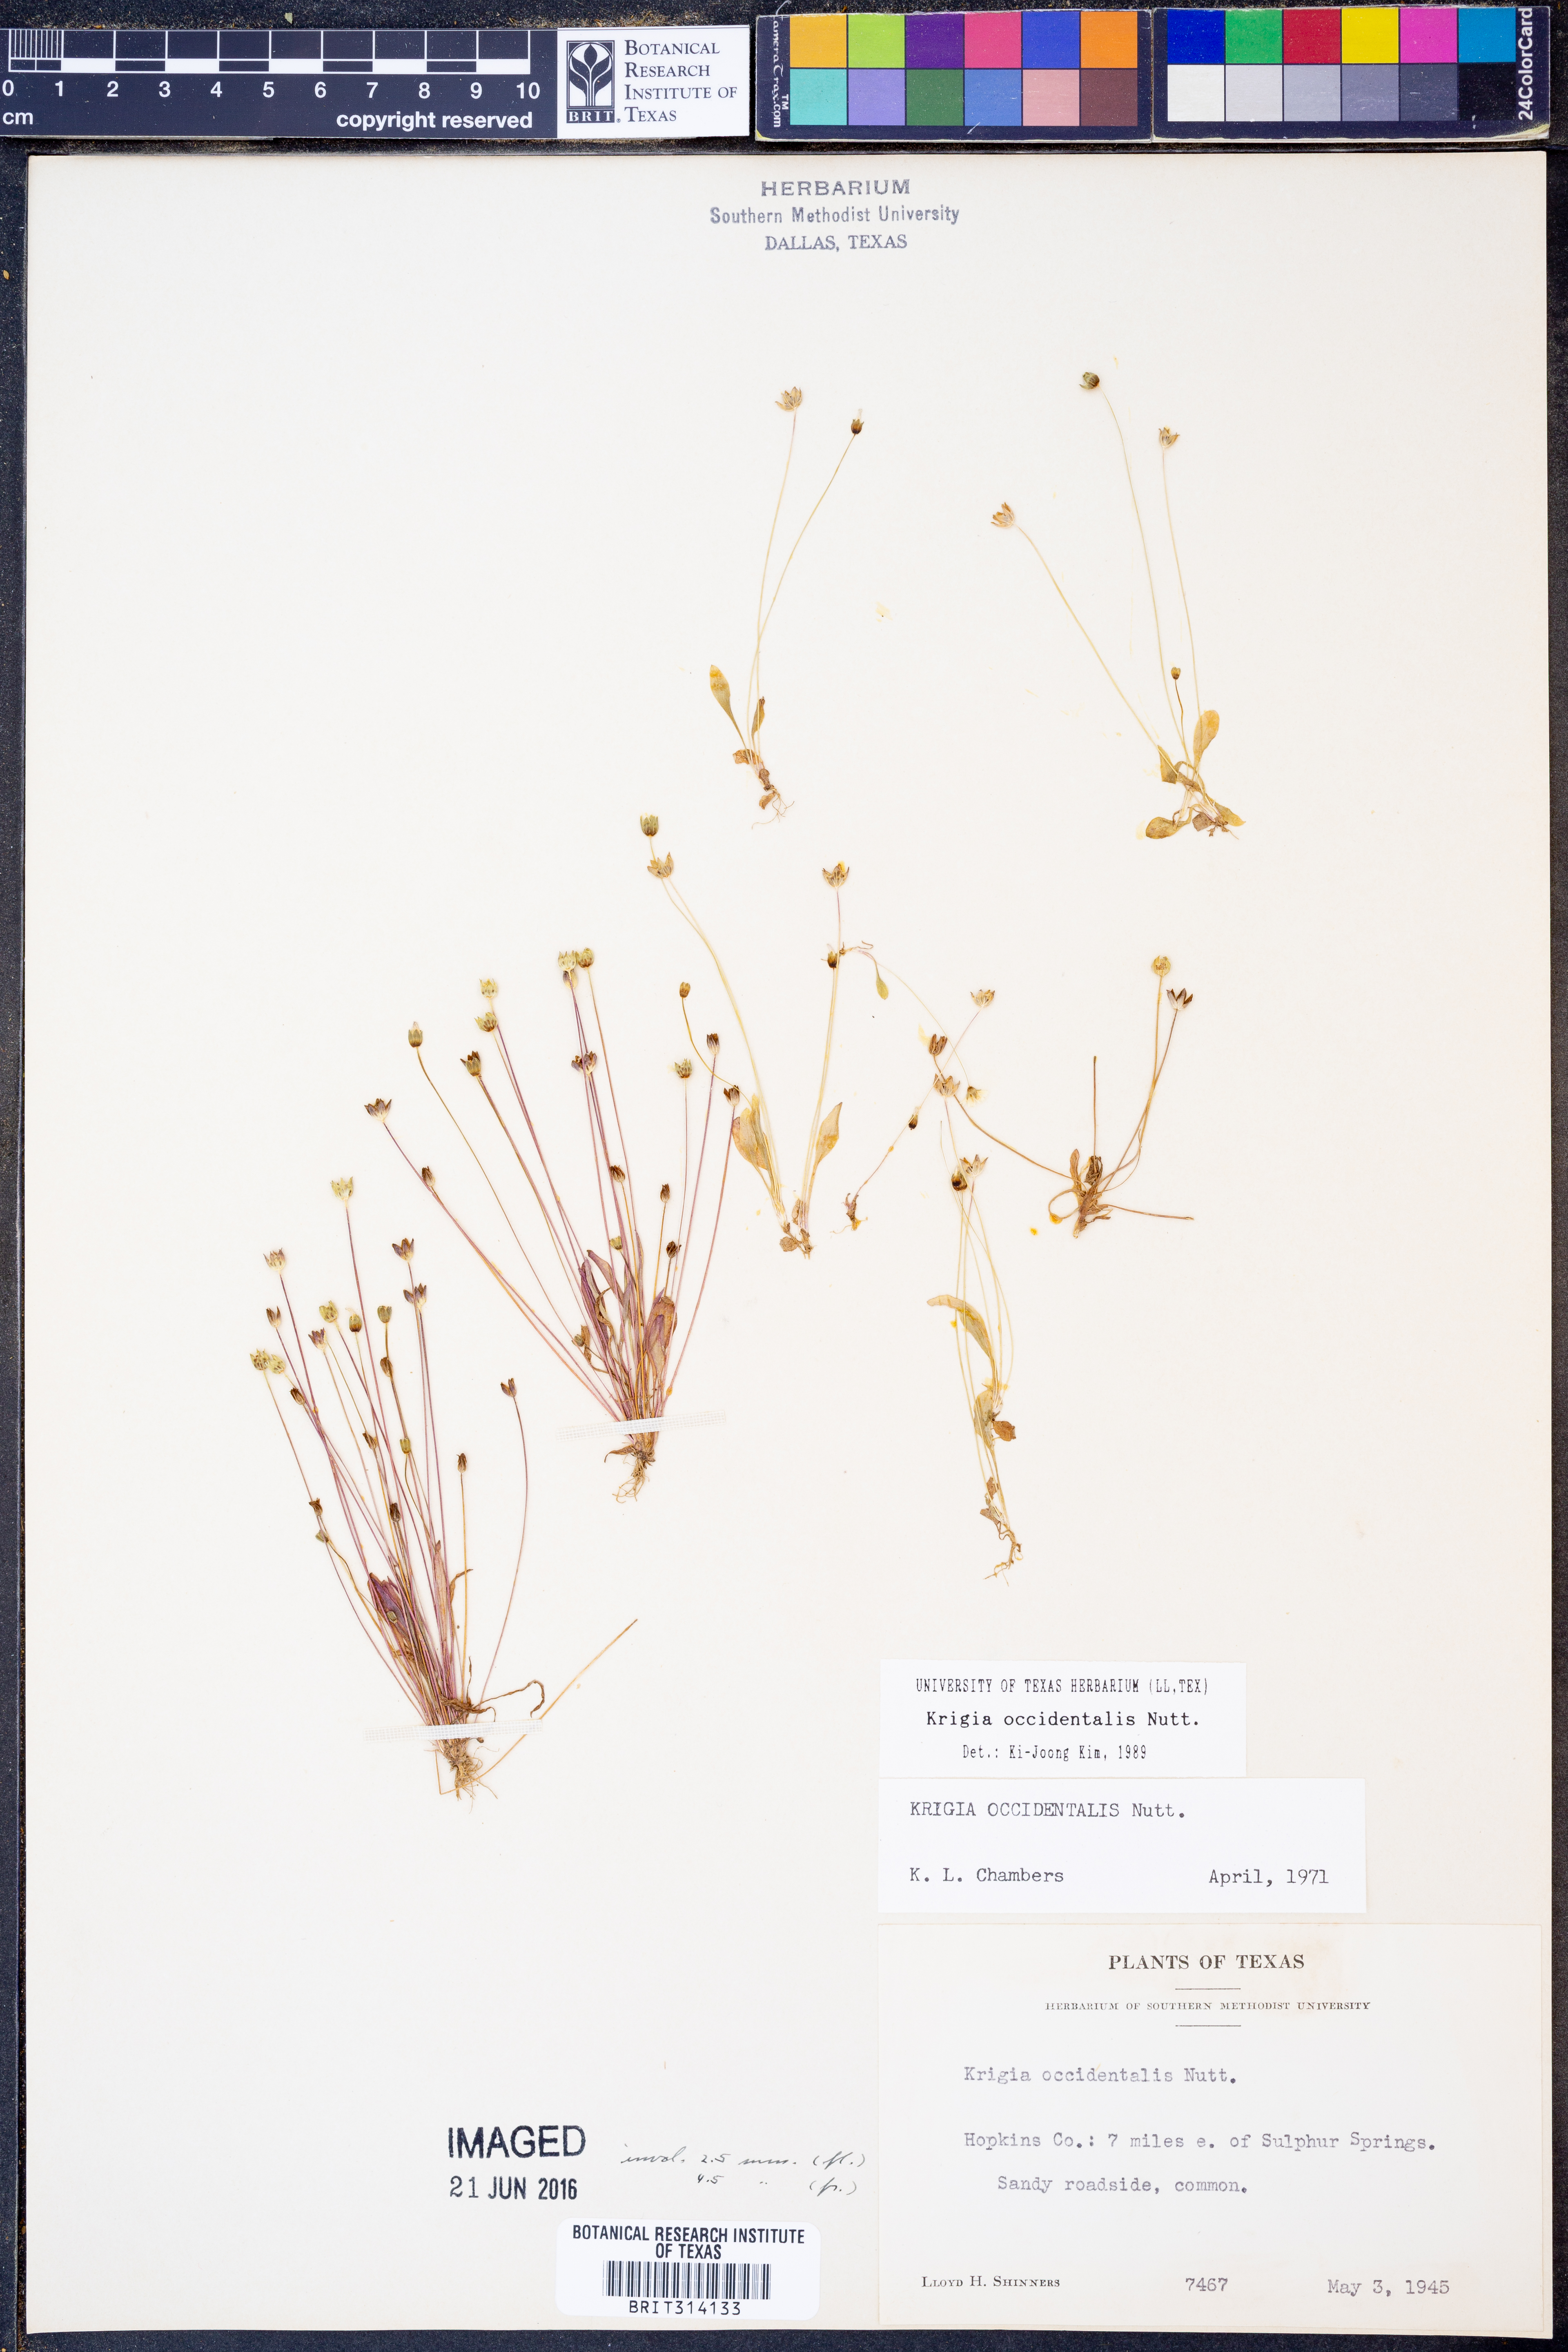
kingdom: Plantae
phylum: Tracheophyta
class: Magnoliopsida
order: Asterales
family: Asteraceae
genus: Krigia
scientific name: Krigia occidentalis
